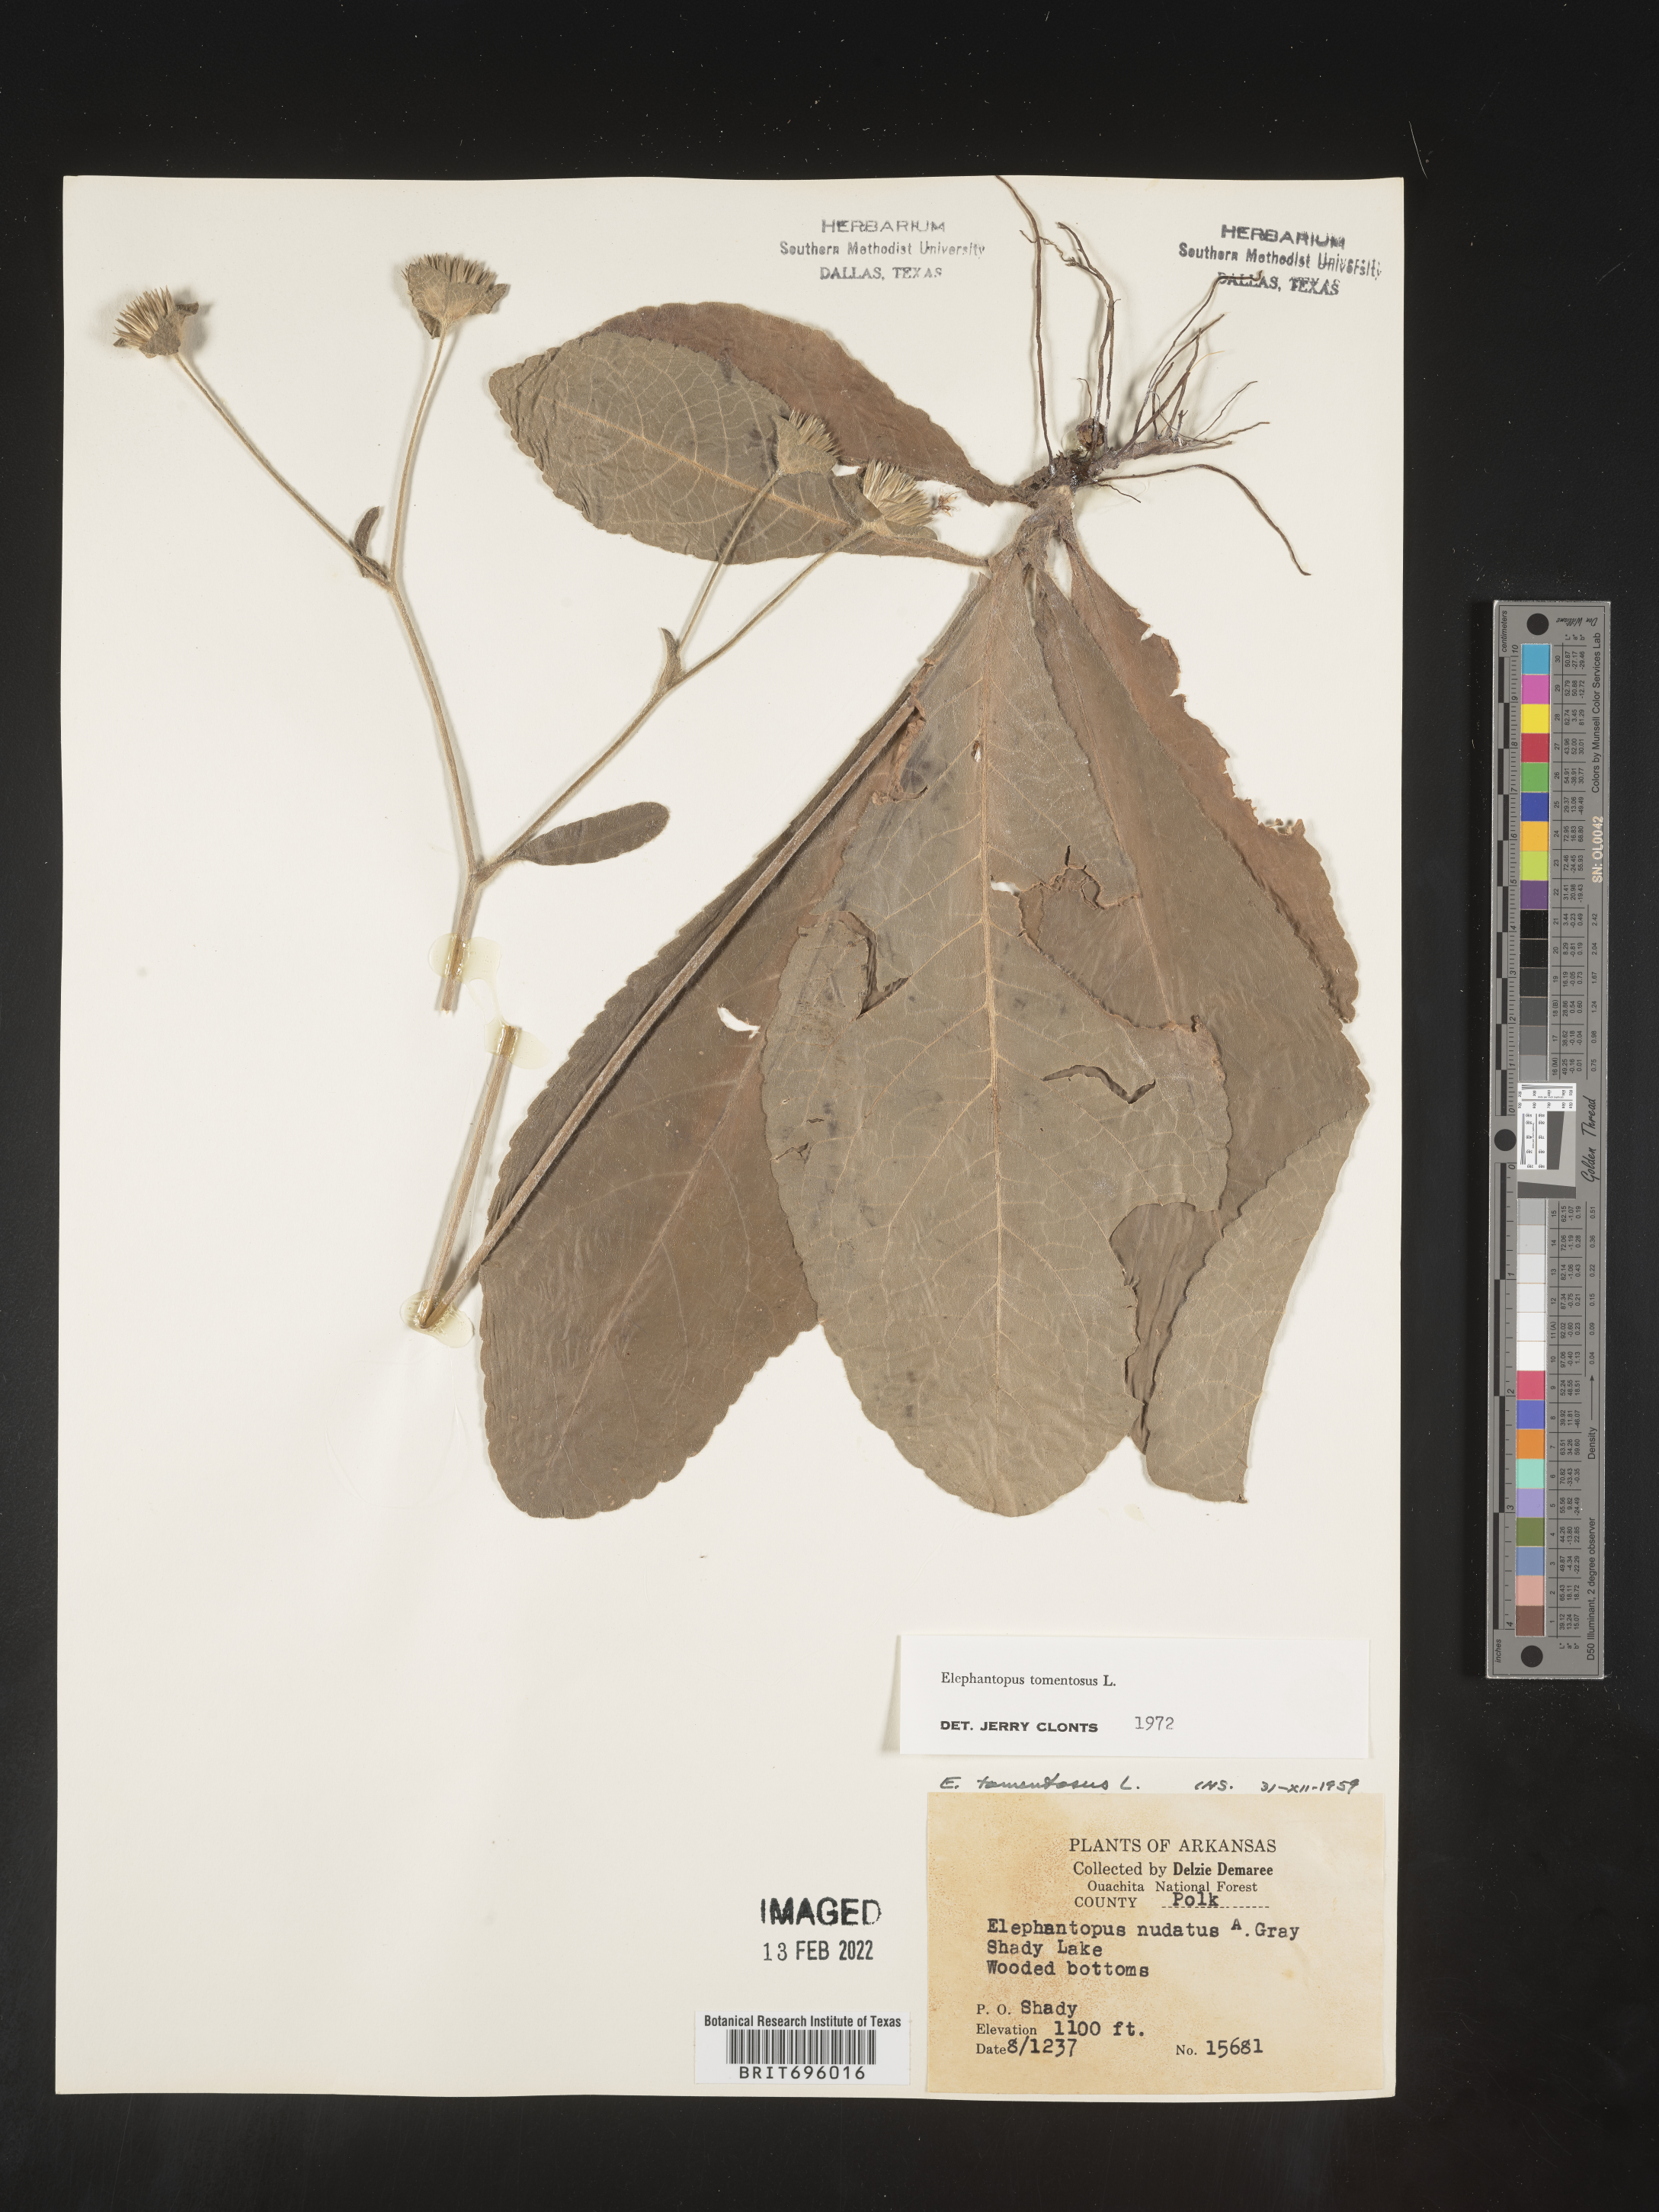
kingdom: Plantae
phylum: Tracheophyta
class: Magnoliopsida
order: Asterales
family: Asteraceae
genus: Elephantopus
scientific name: Elephantopus tomentosus
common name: Tobacco-weed
